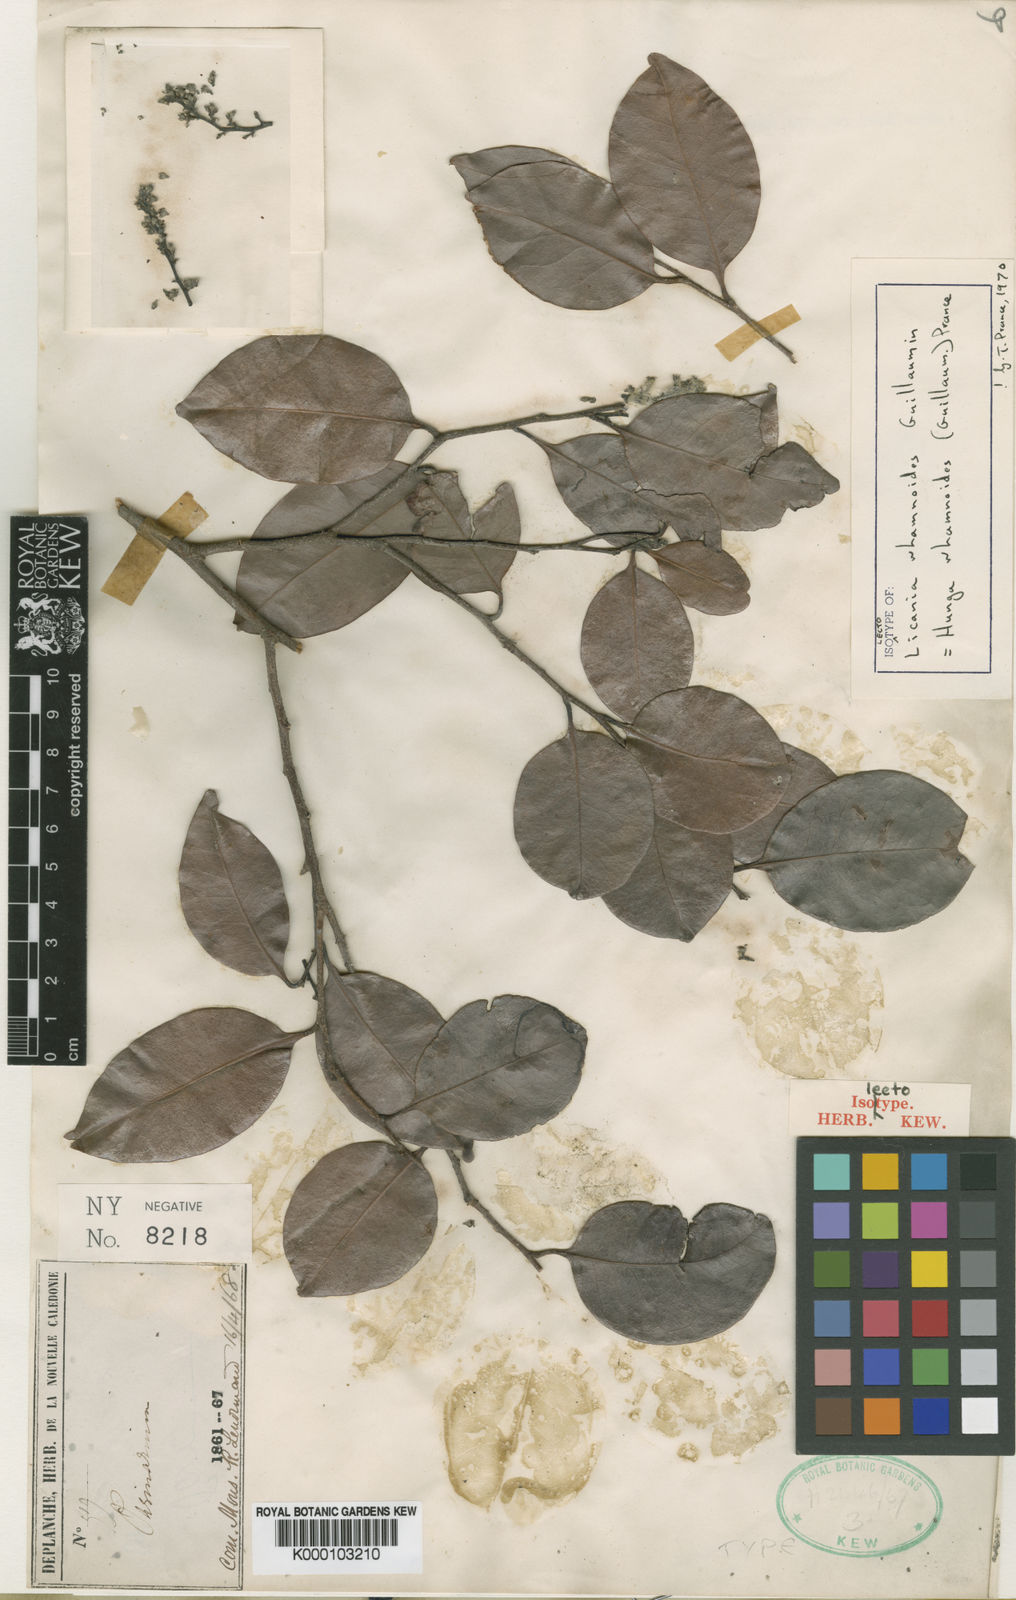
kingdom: Plantae
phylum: Tracheophyta
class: Magnoliopsida
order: Malpighiales
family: Chrysobalanaceae
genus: Hunga
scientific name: Hunga rhamnoides
